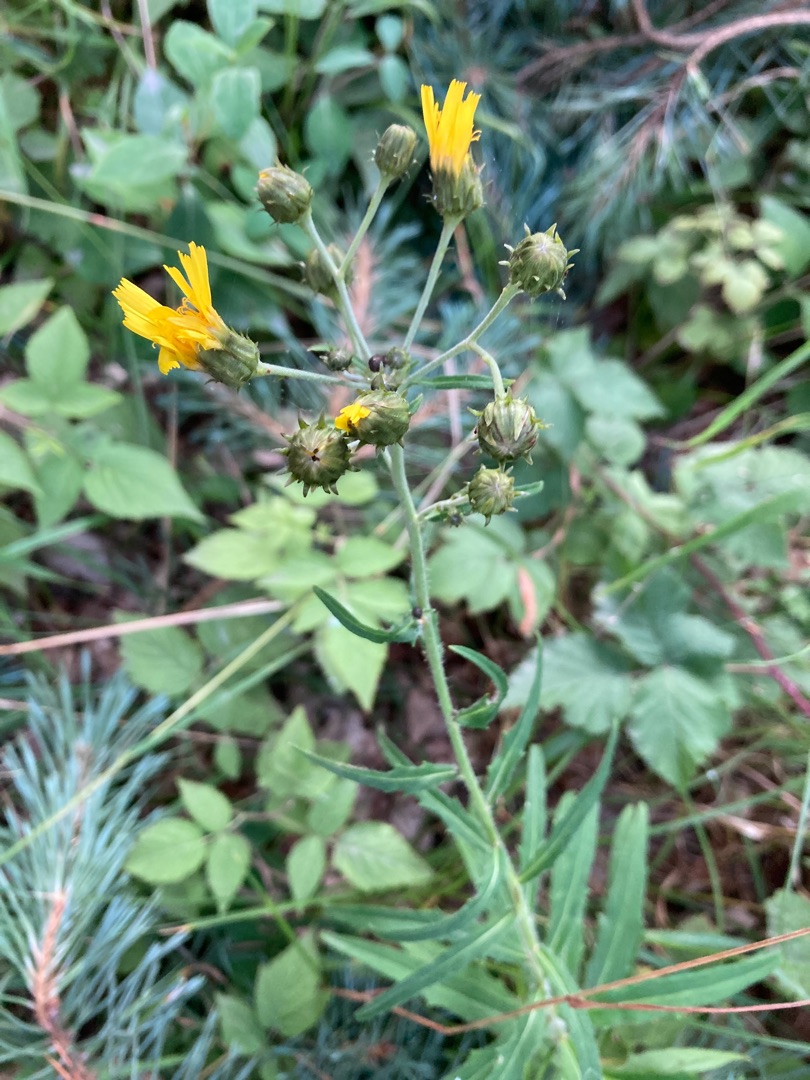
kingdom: Plantae
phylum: Tracheophyta
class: Magnoliopsida
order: Asterales
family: Asteraceae
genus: Hieracium
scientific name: Hieracium umbellatum
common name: Smalbladet høgeurt
